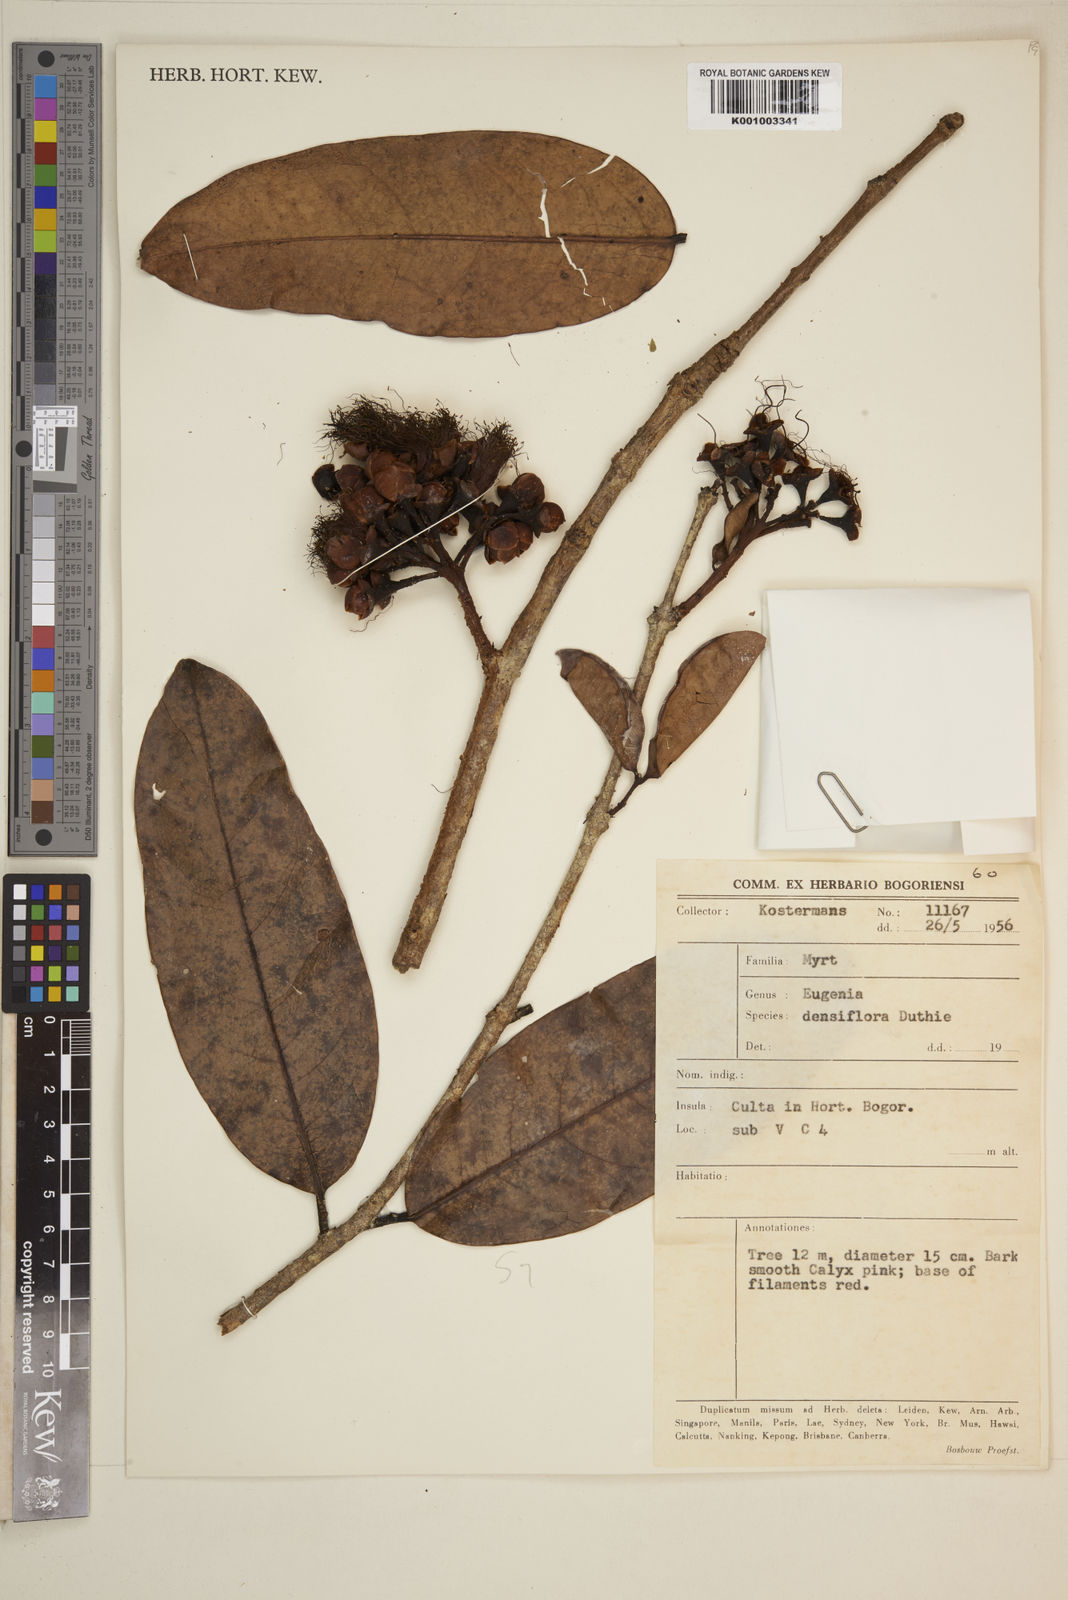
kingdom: Plantae
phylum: Tracheophyta
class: Magnoliopsida
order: Myrtales
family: Myrtaceae
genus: Eugenia
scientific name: Eugenia
